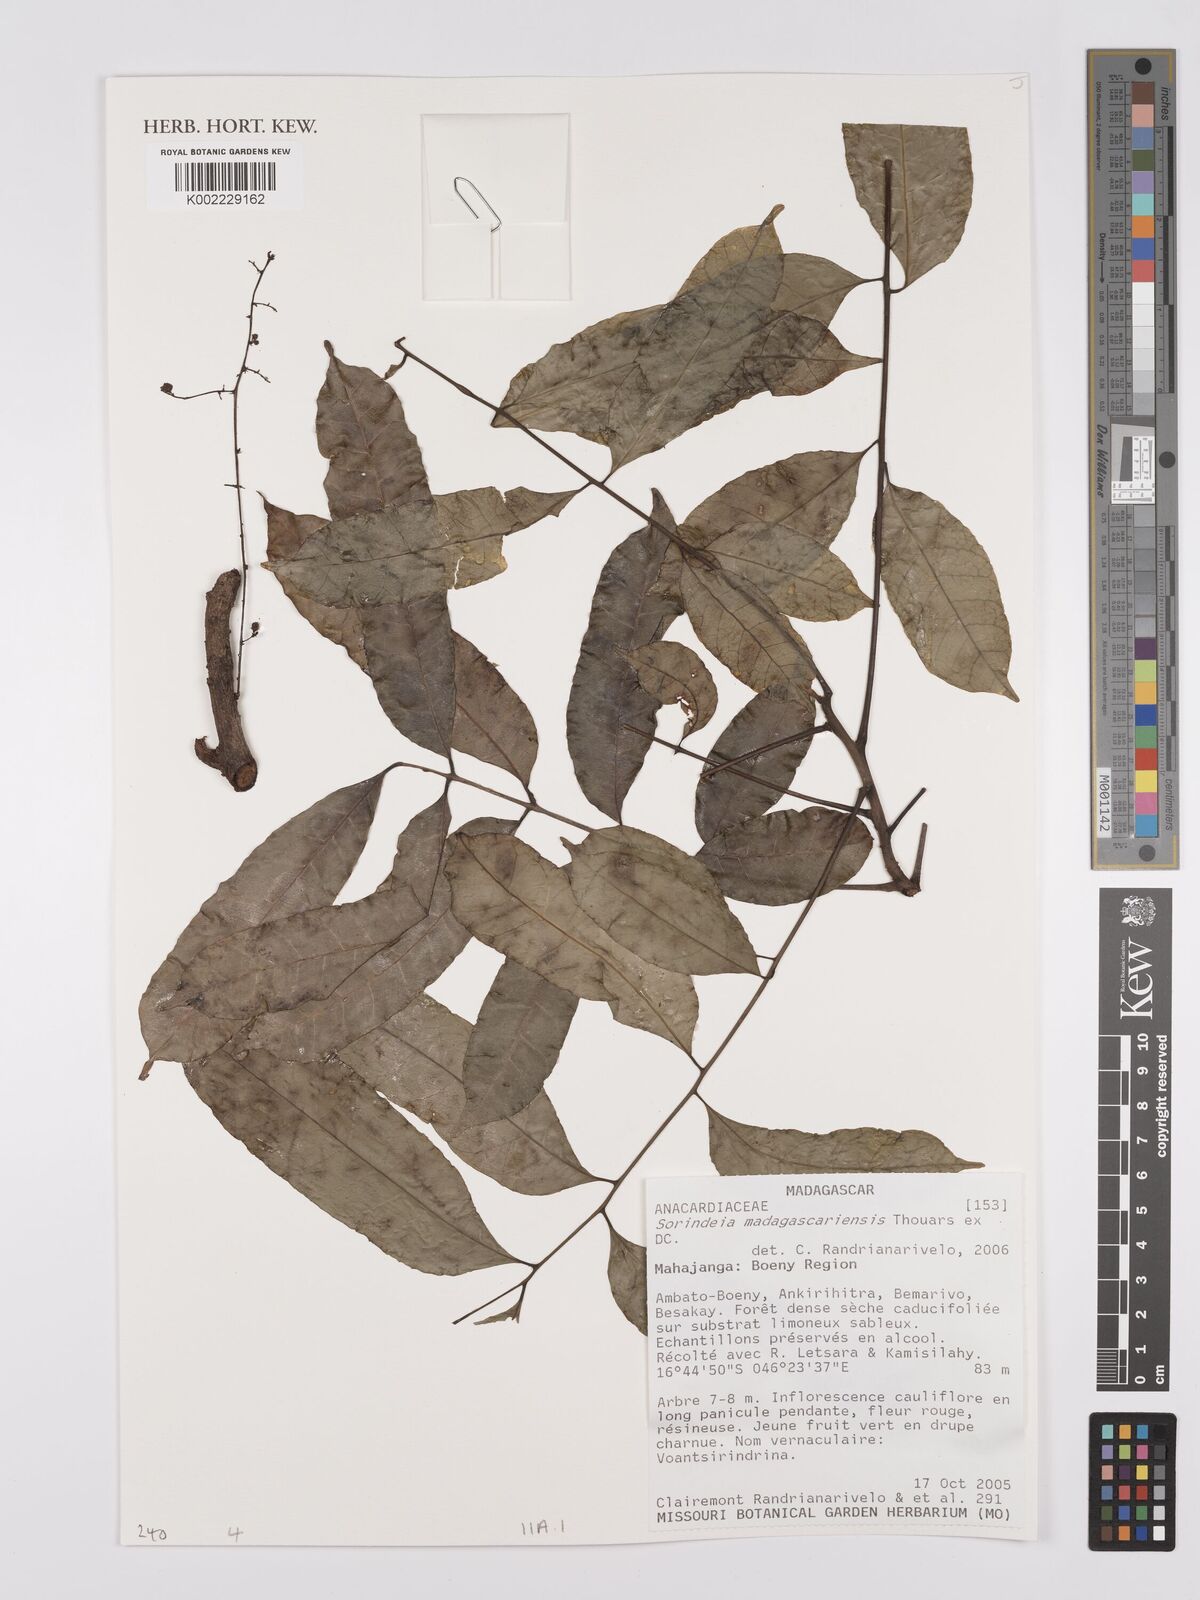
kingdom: Plantae
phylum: Tracheophyta
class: Magnoliopsida
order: Sapindales
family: Anacardiaceae
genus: Sorindeia
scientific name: Sorindeia madagascariensis
